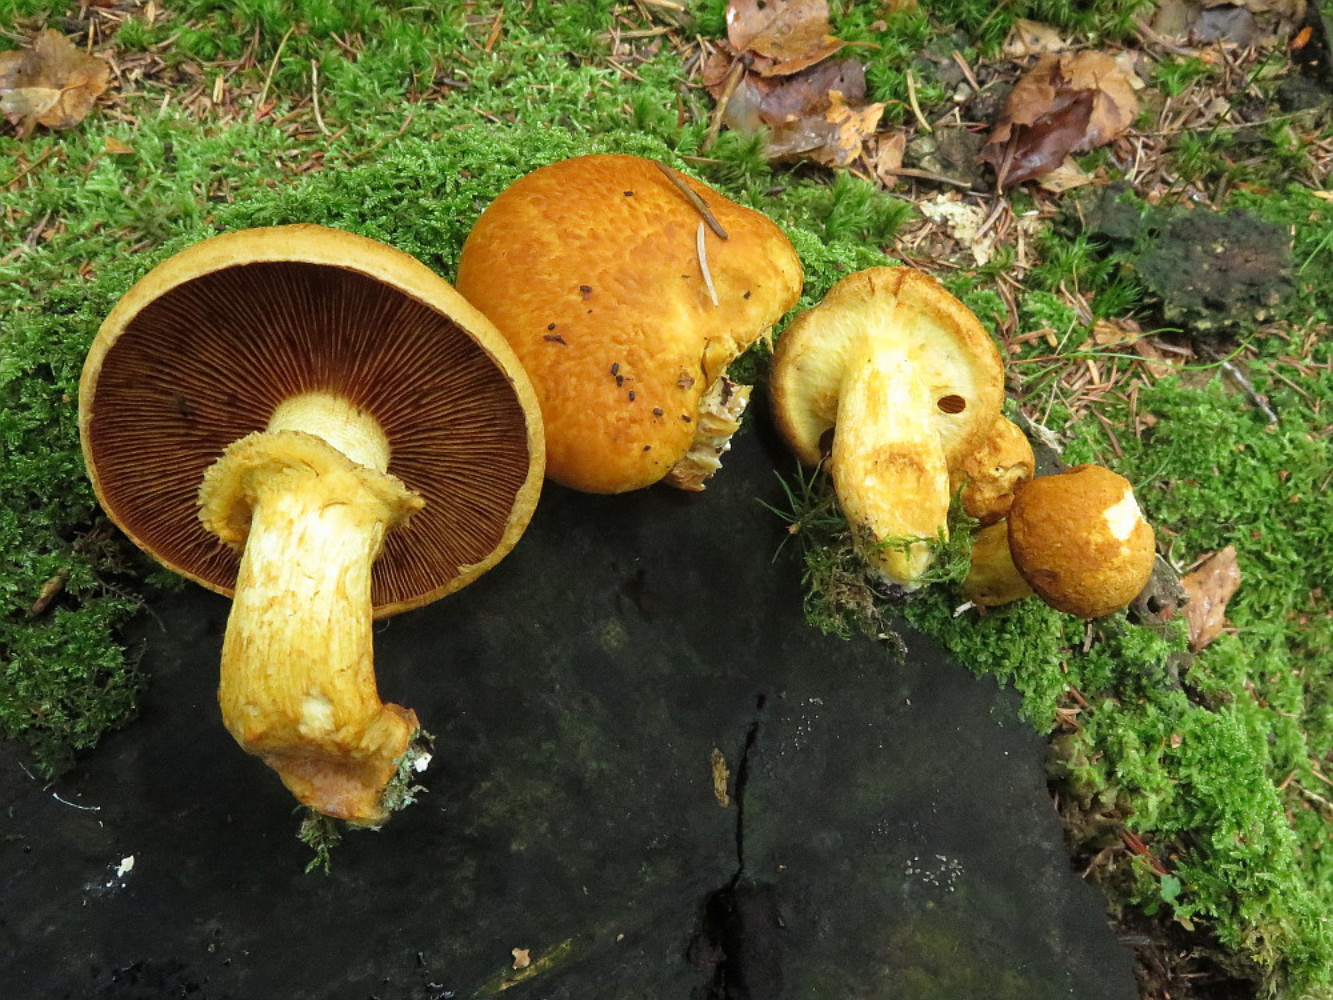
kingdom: Fungi
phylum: Basidiomycota
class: Agaricomycetes
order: Agaricales
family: Hymenogastraceae
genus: Gymnopilus
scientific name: Gymnopilus spectabilis
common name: fibret flammehat
